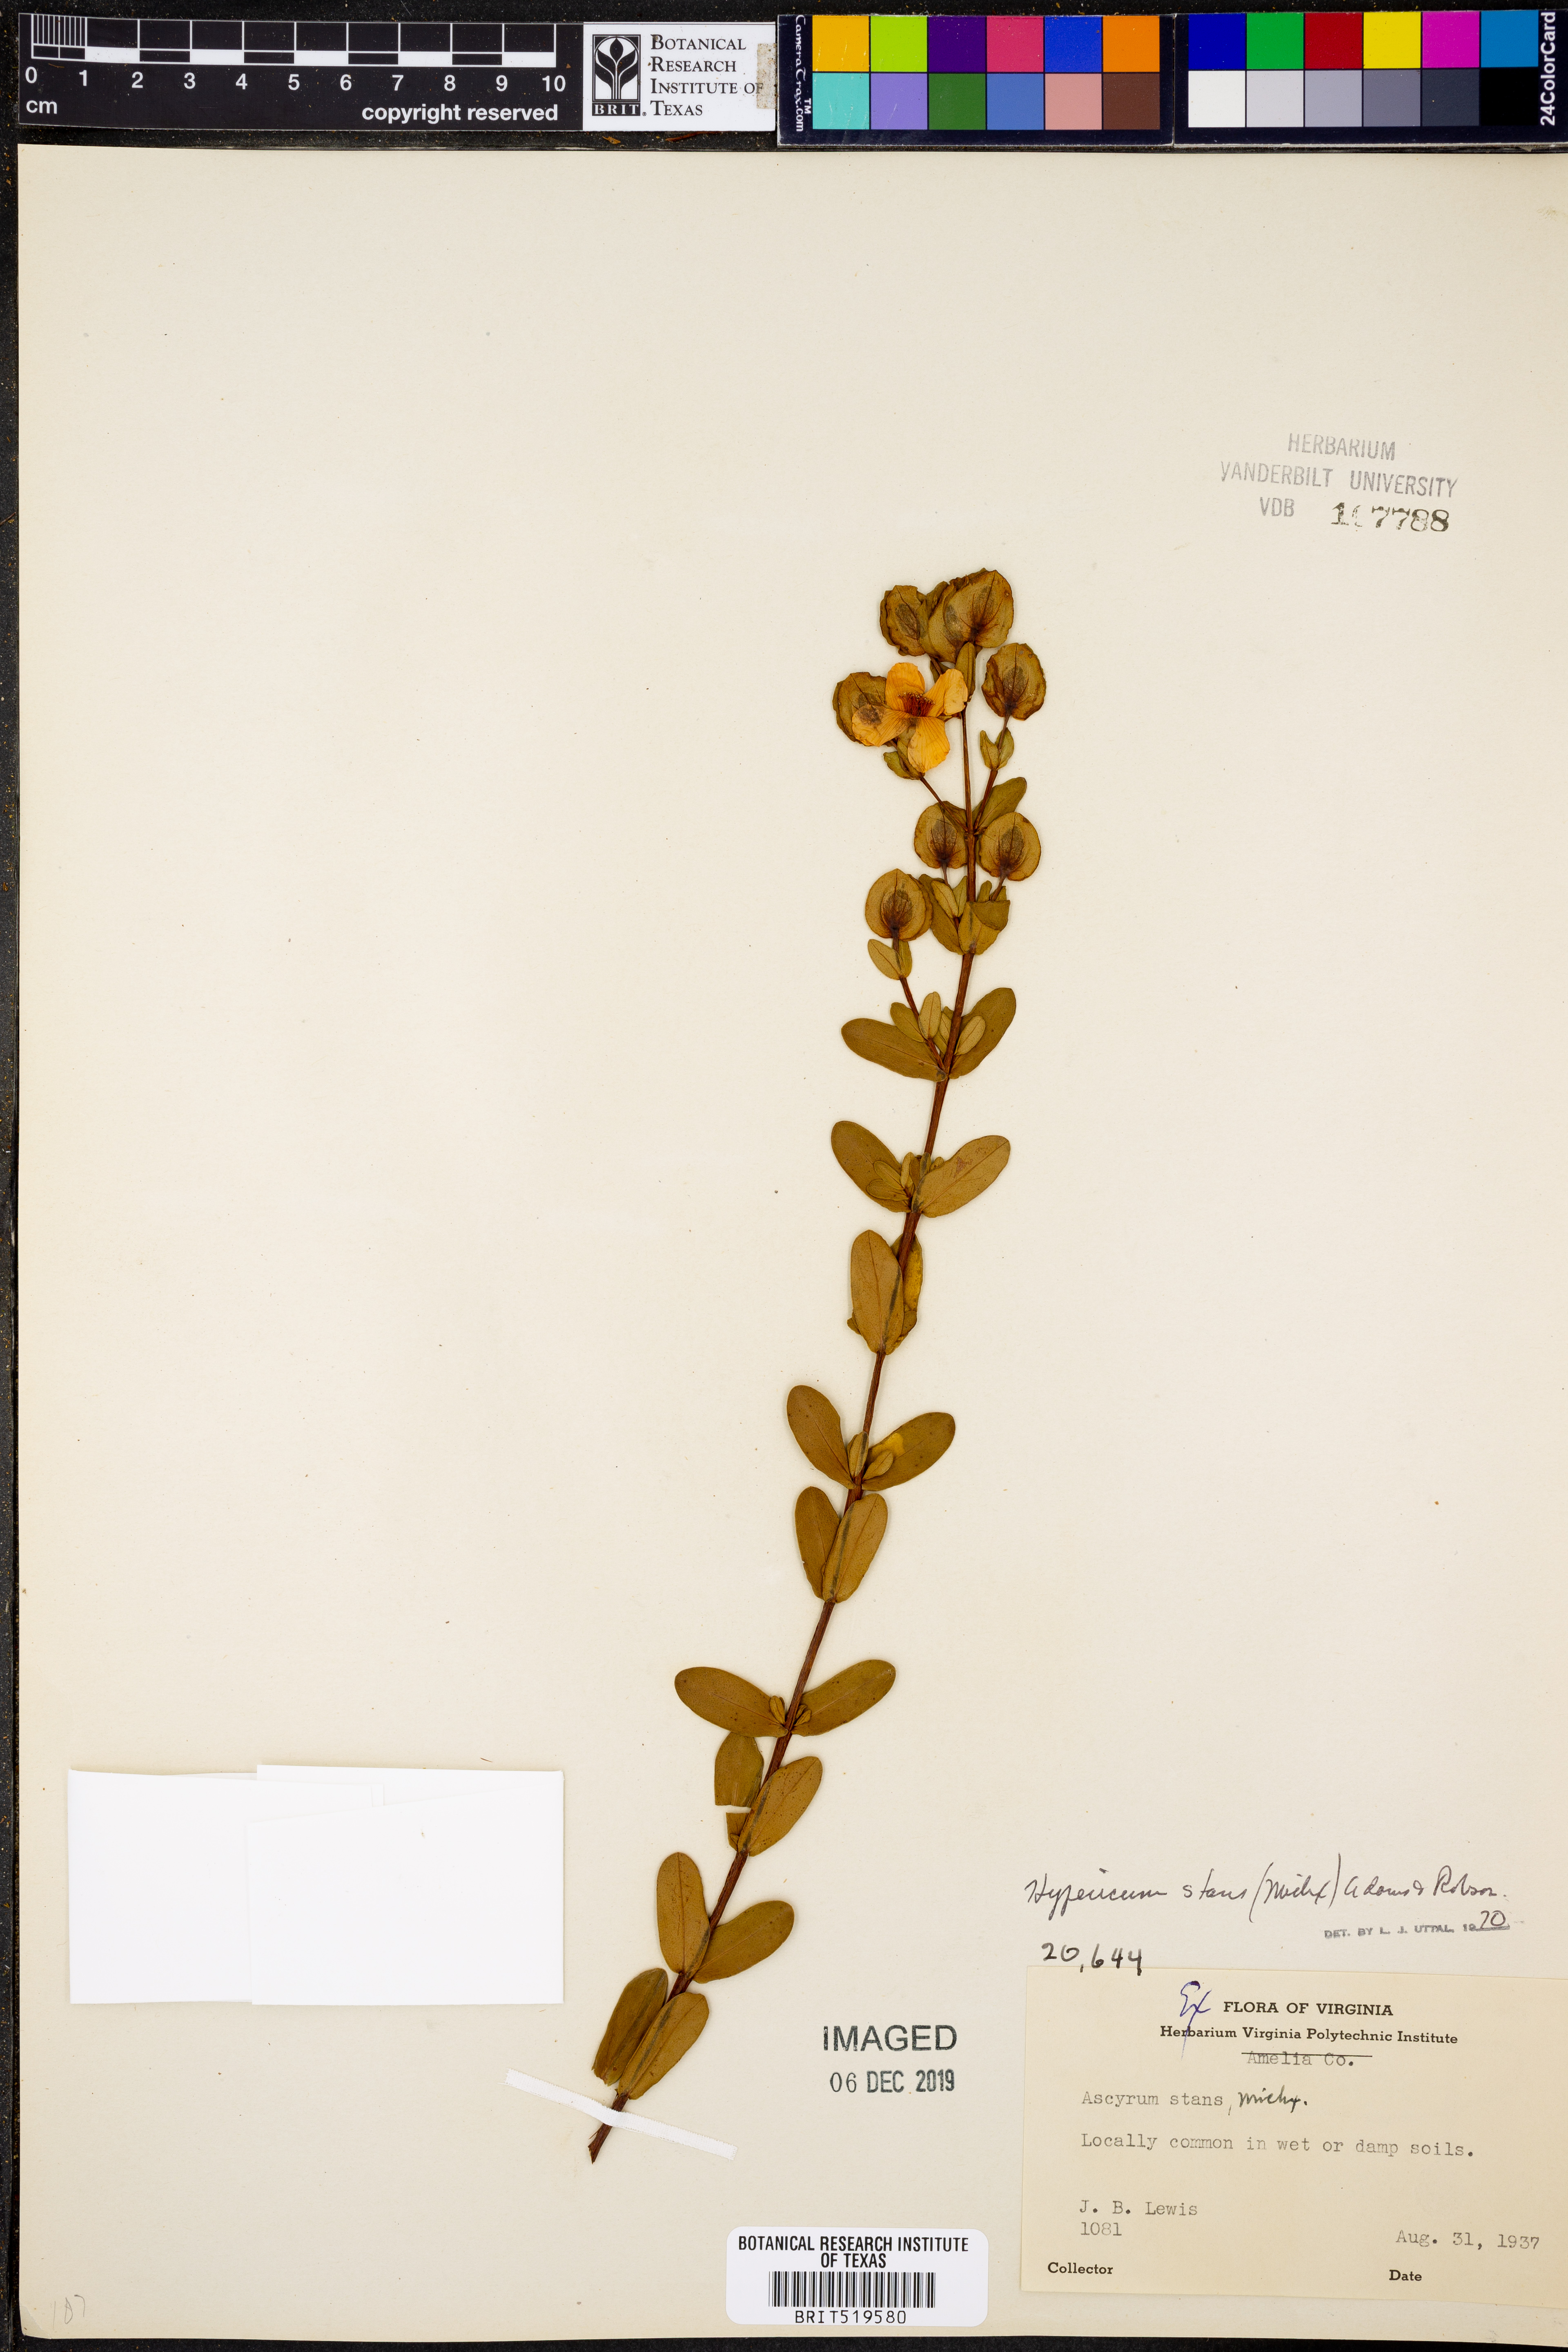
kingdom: Plantae
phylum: Tracheophyta
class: Magnoliopsida
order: Malpighiales
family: Hypericaceae
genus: Hypericum
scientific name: Hypericum crux-andreae
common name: St.-peter's-wort
